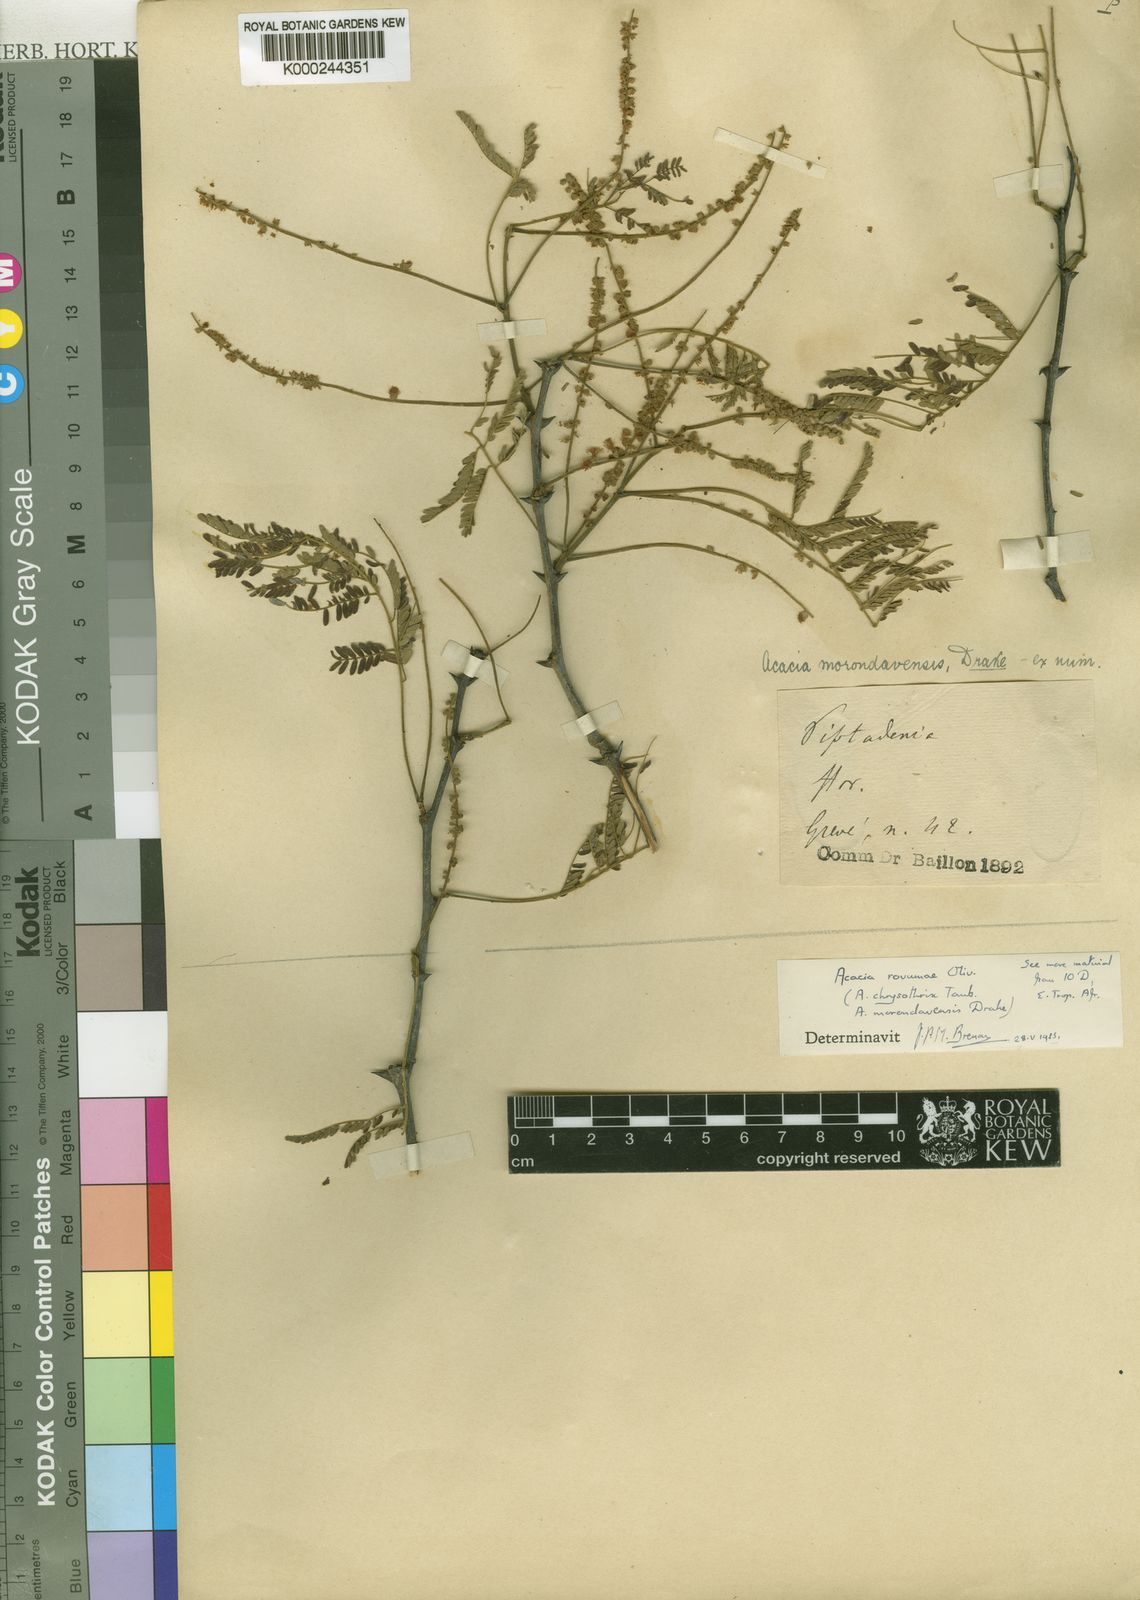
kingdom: Plantae
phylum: Tracheophyta
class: Magnoliopsida
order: Fabales
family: Fabaceae
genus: Senegalia
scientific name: Senegalia rovumae
